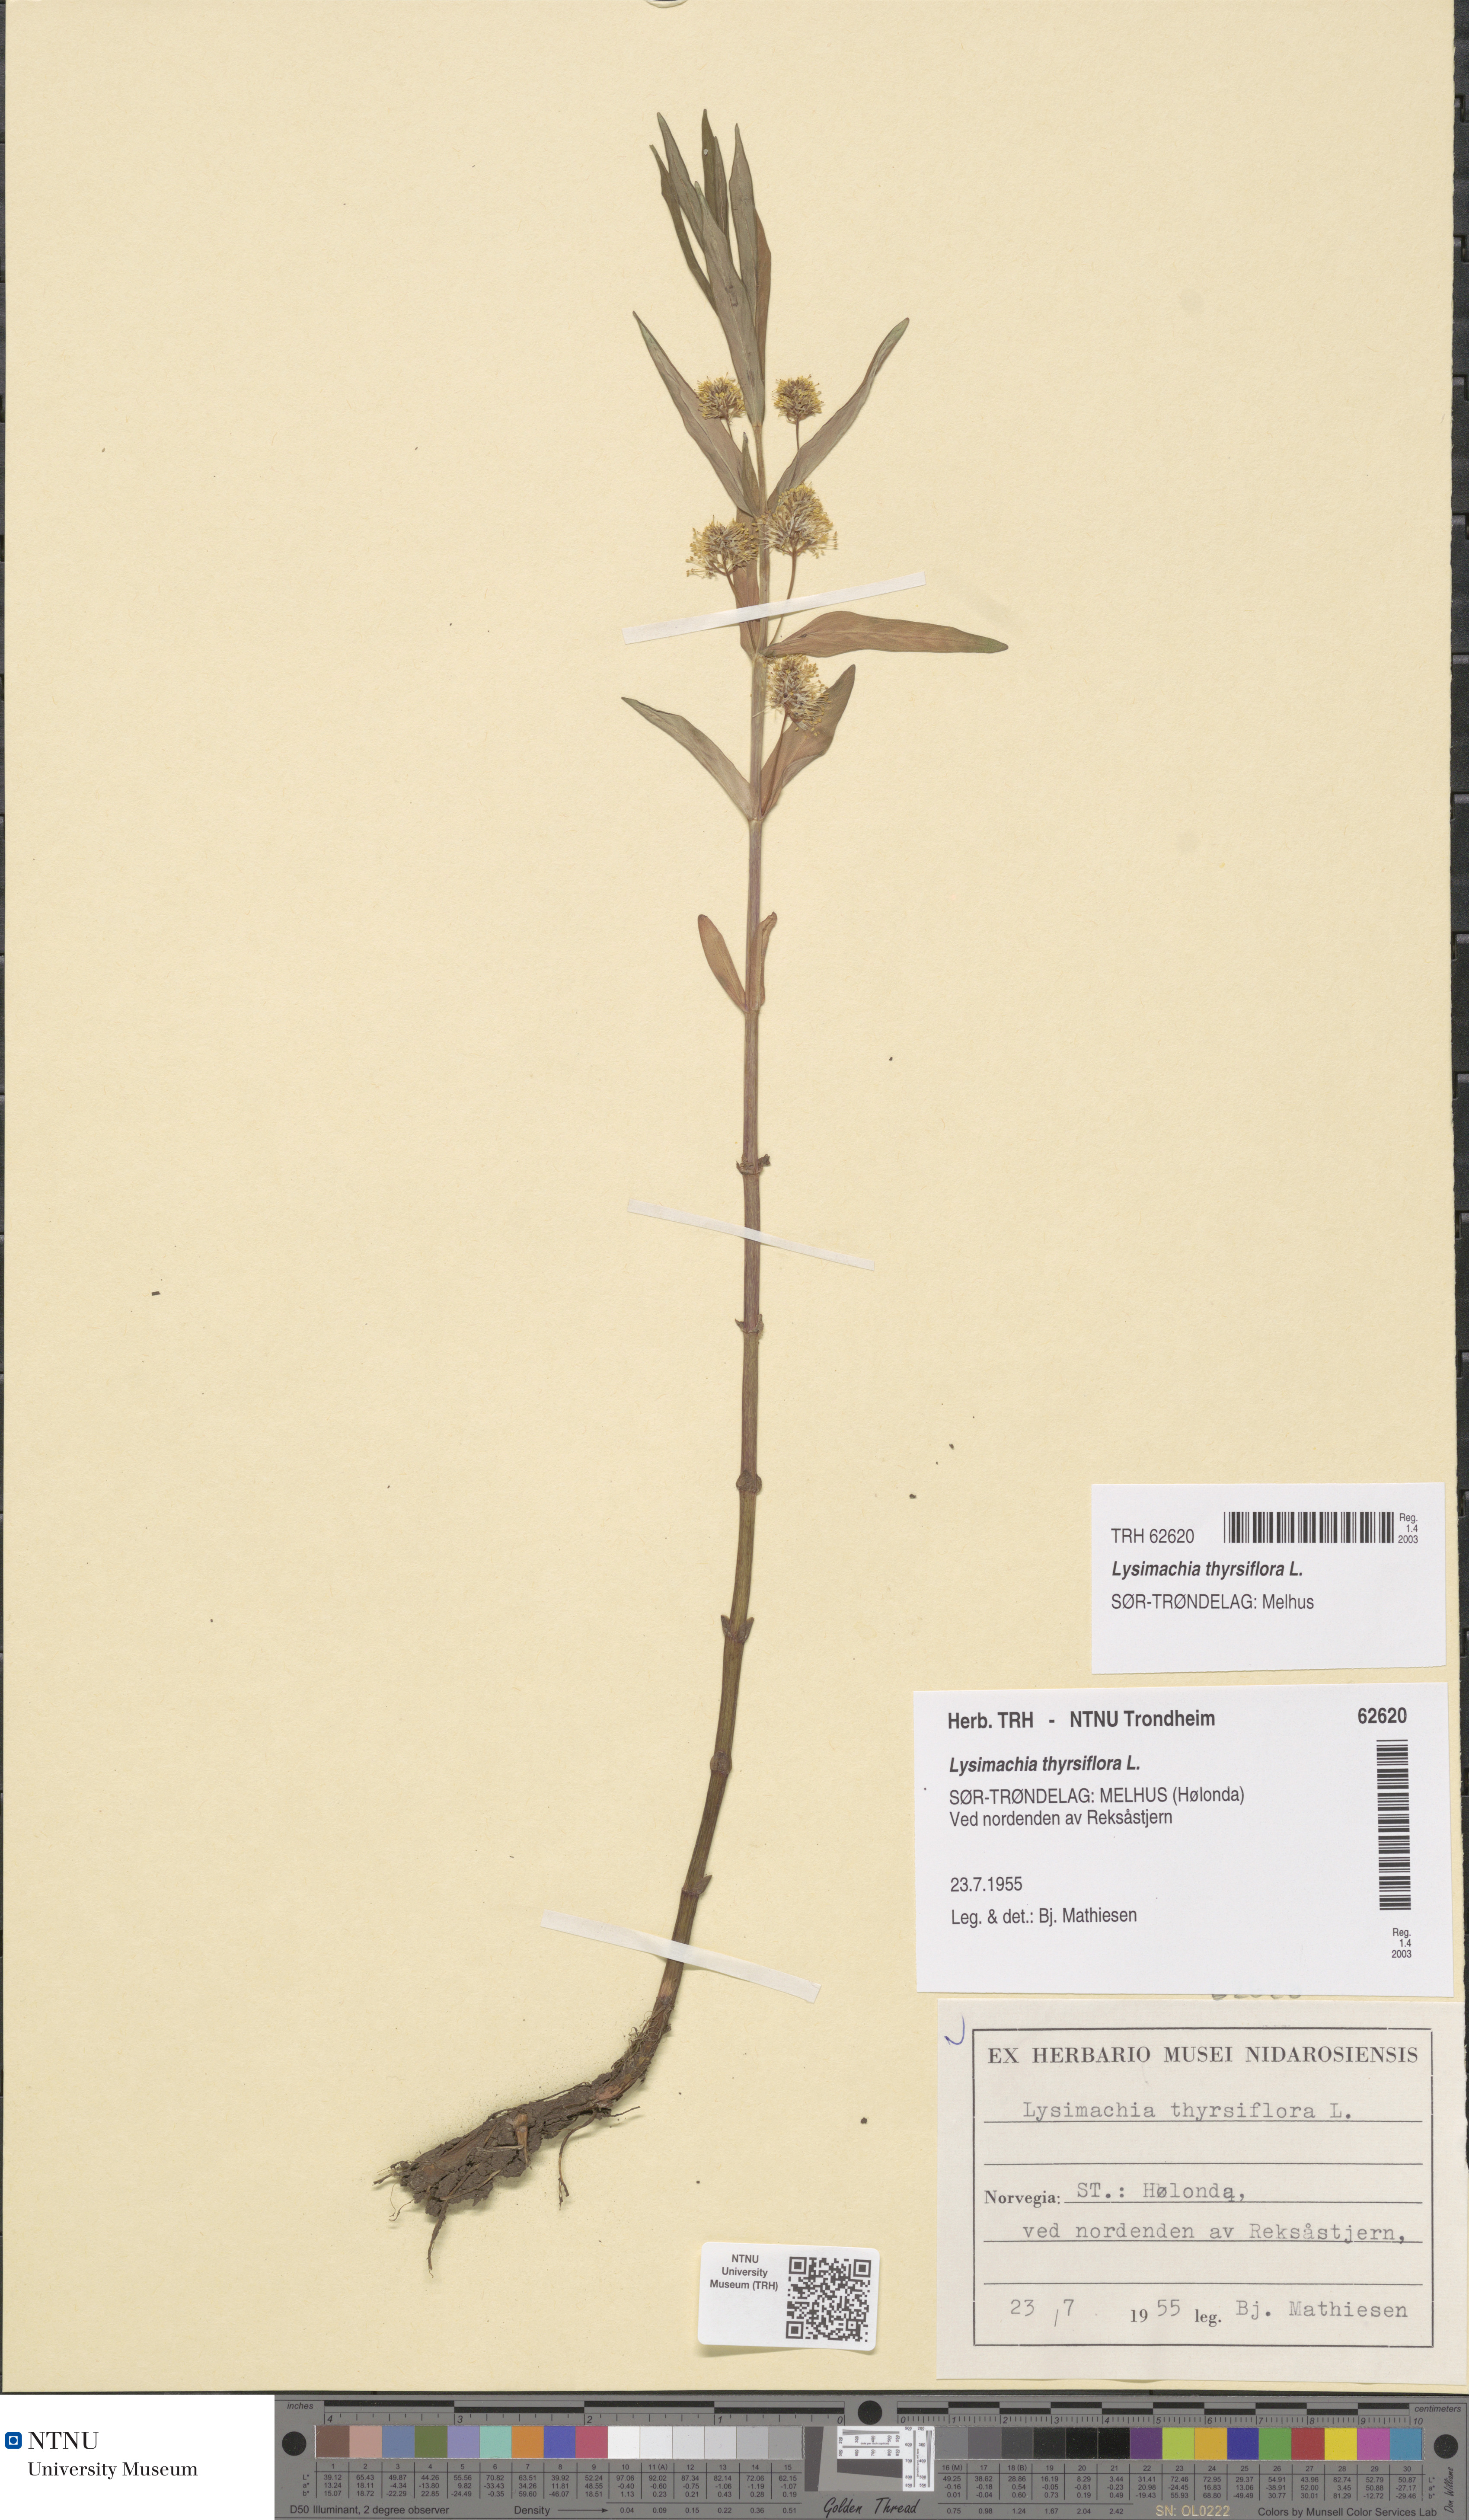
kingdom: Plantae
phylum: Tracheophyta
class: Magnoliopsida
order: Ericales
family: Primulaceae
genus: Lysimachia
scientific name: Lysimachia thyrsiflora
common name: Tufted loosestrife
